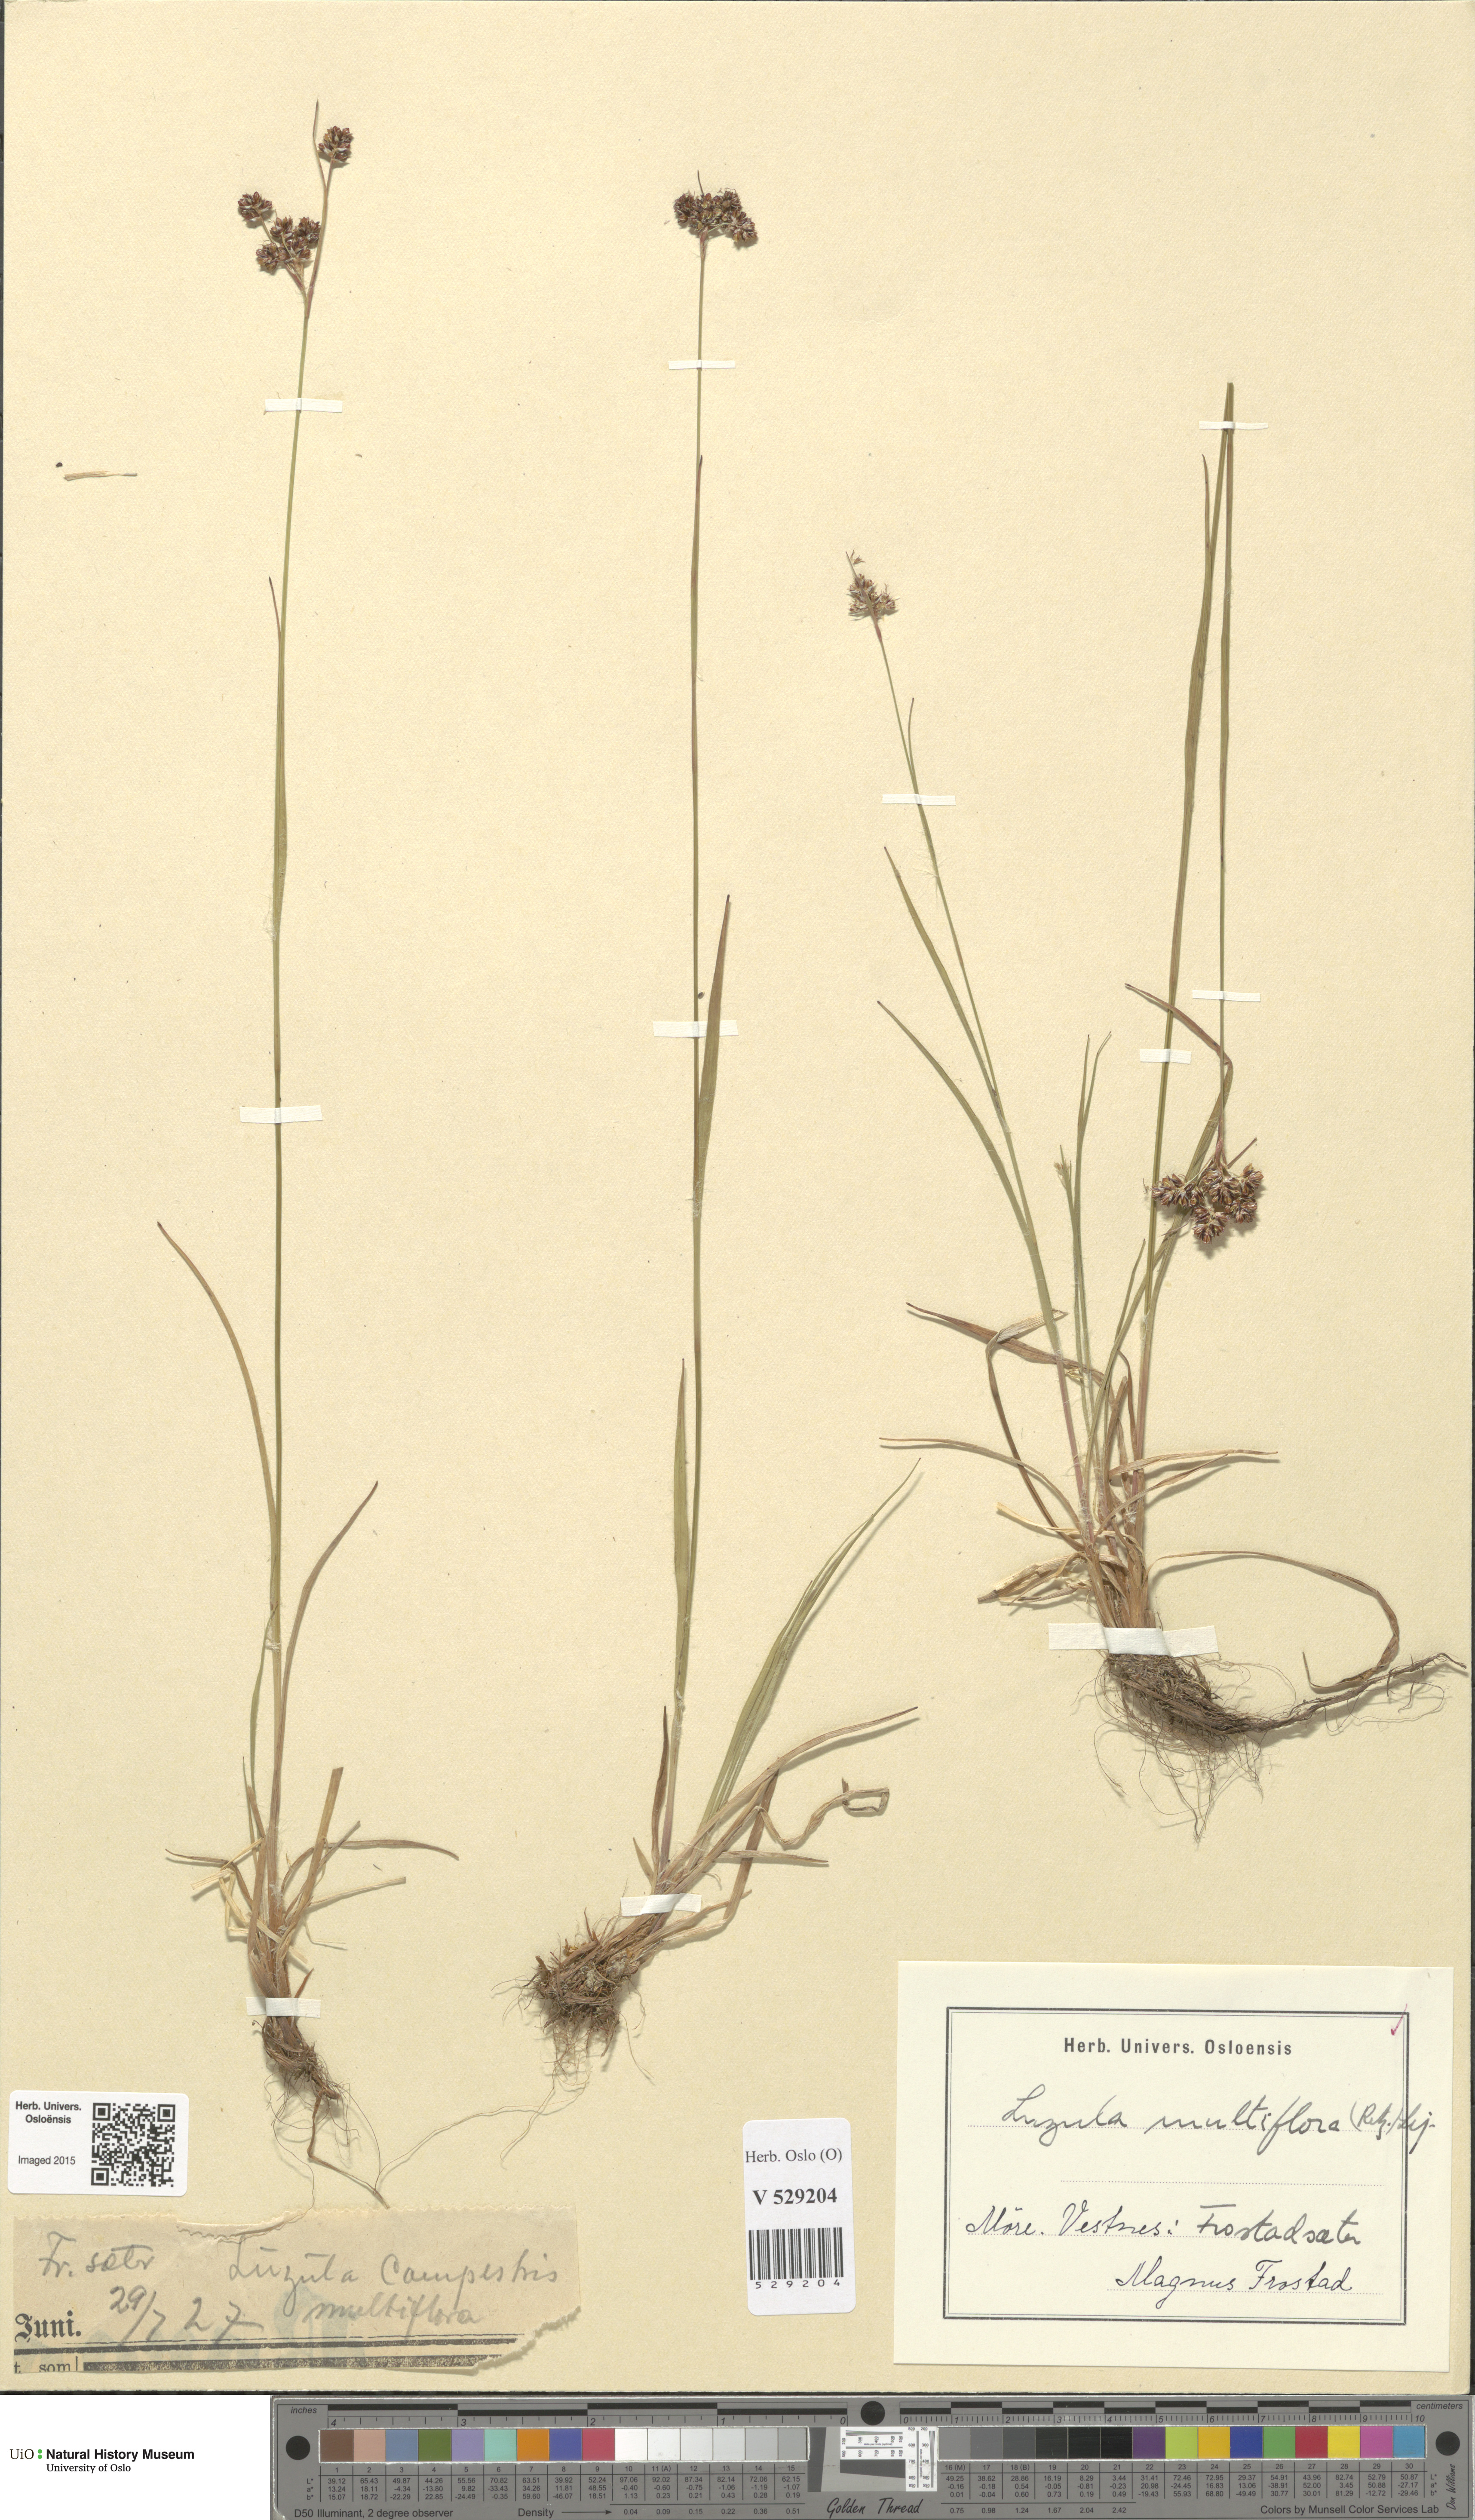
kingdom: Plantae
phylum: Tracheophyta
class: Liliopsida
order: Poales
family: Juncaceae
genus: Luzula
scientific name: Luzula multiflora
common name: Heath wood-rush
